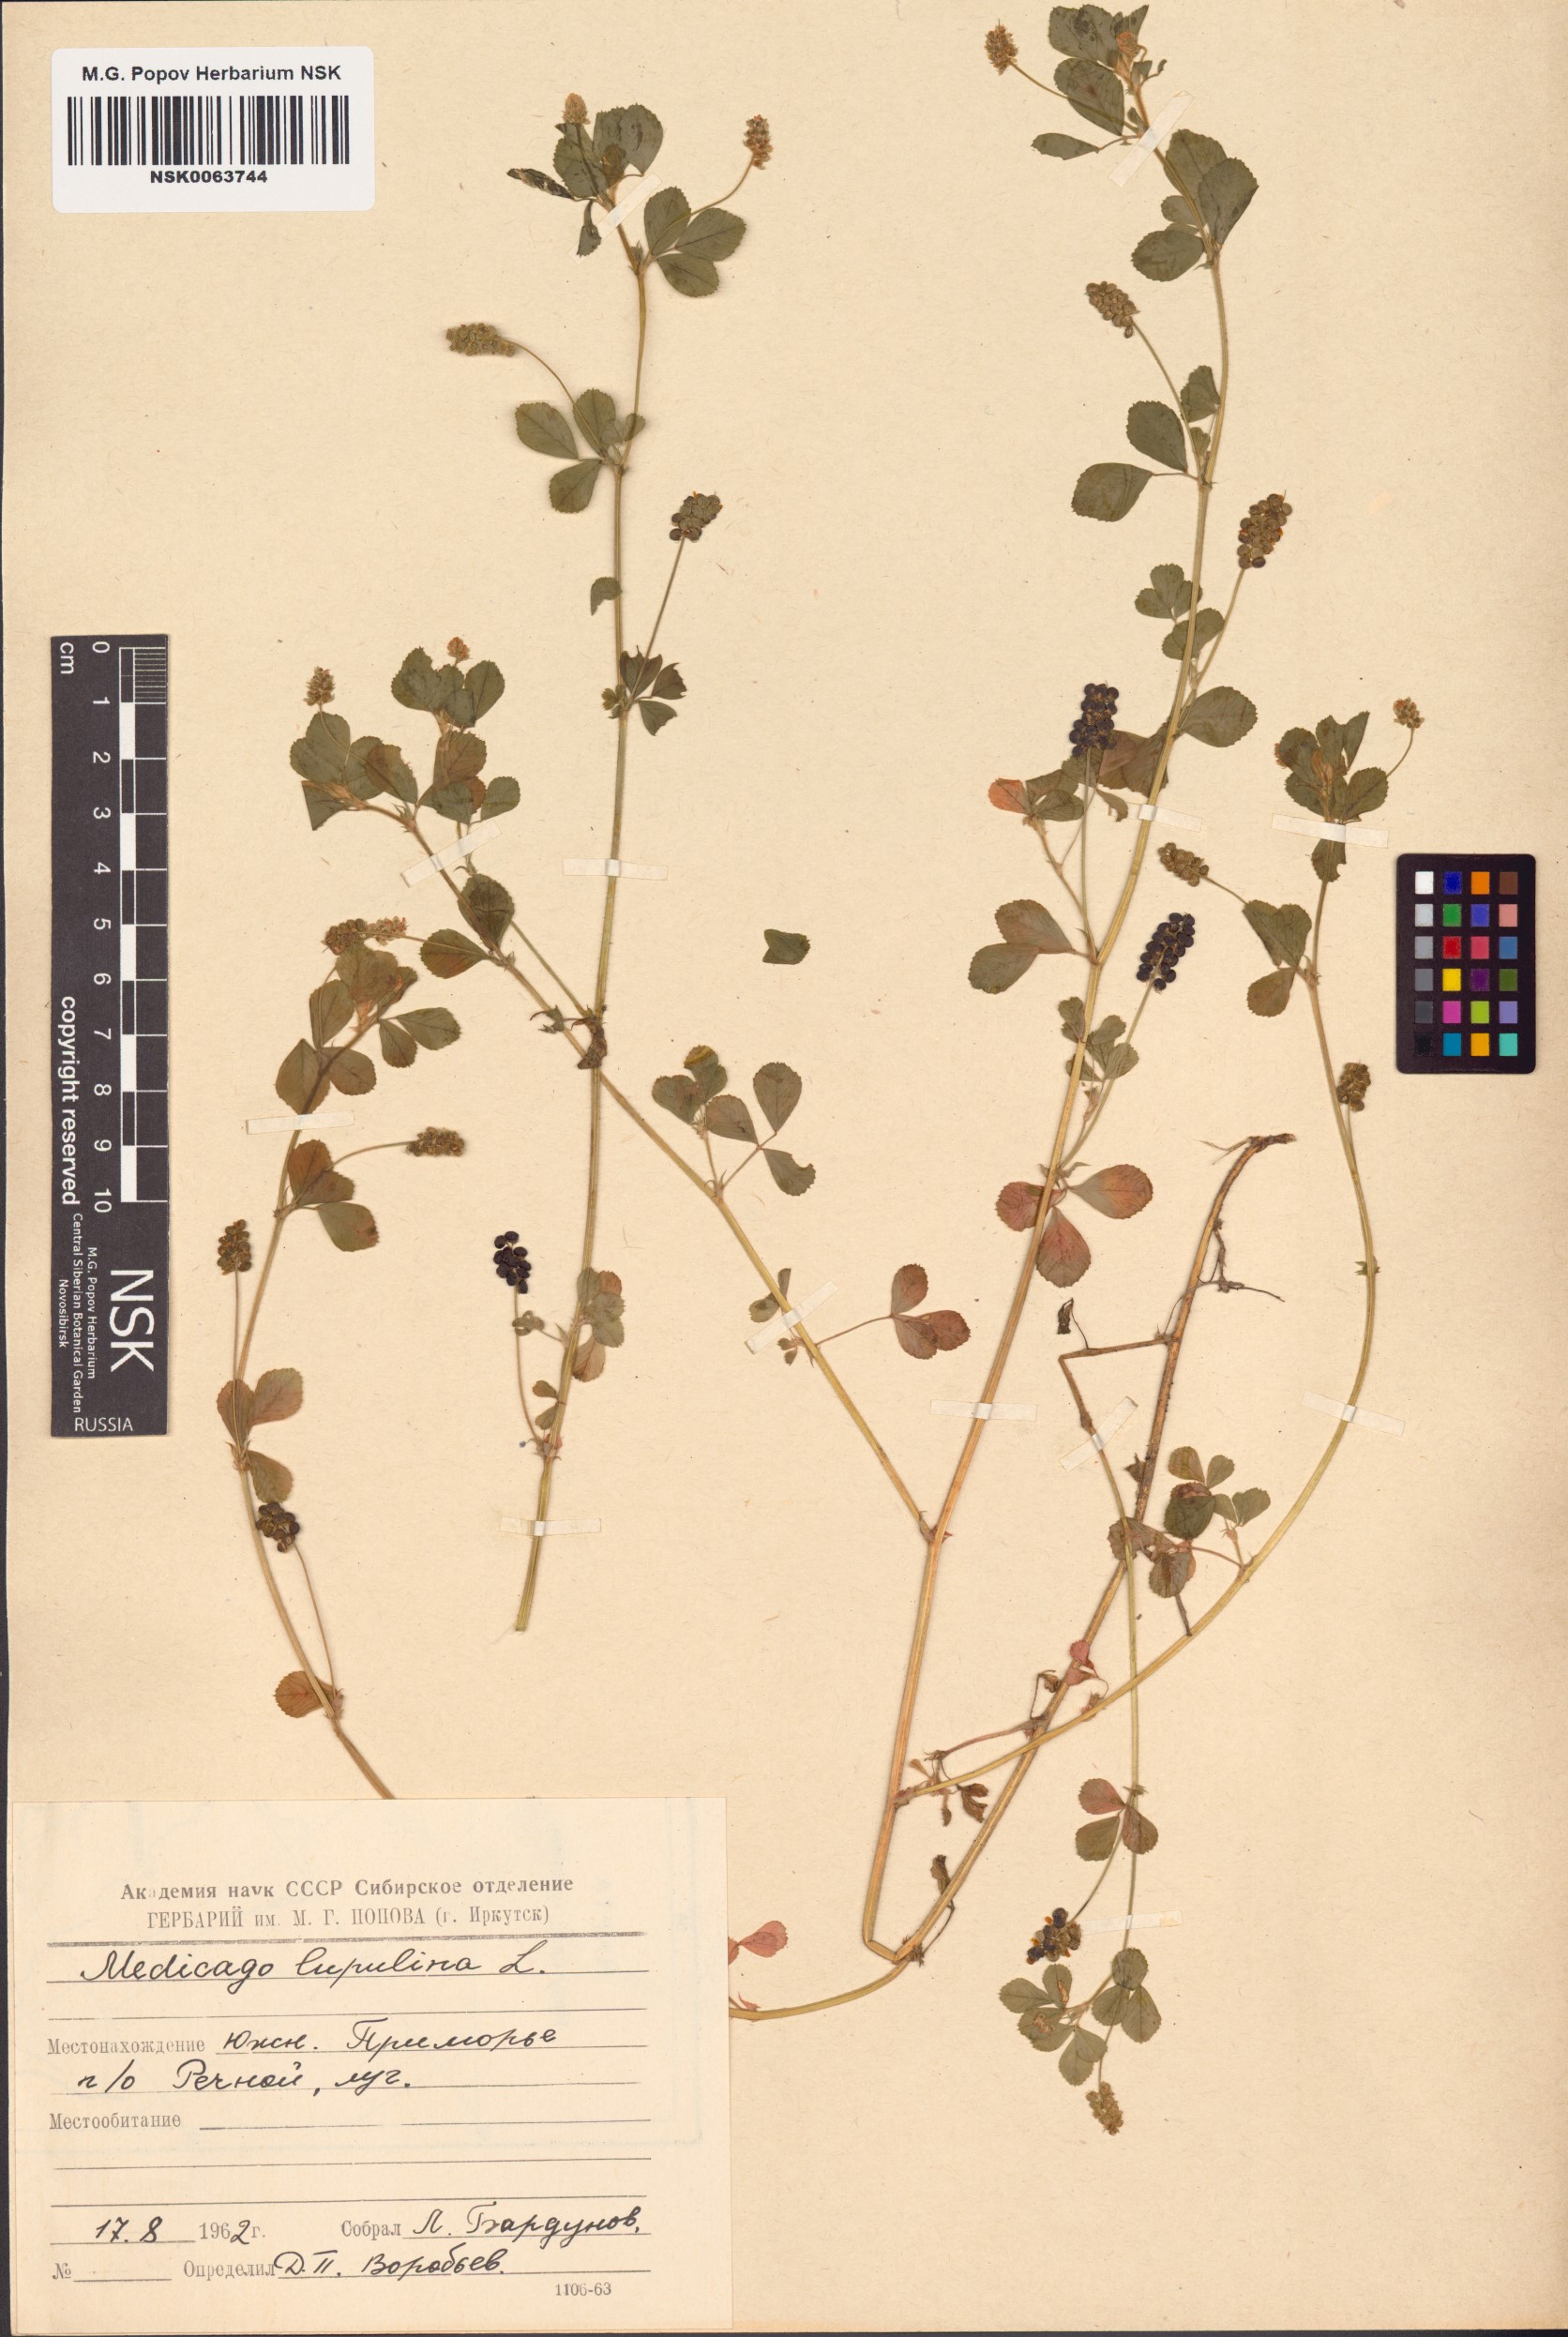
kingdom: Plantae
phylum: Tracheophyta
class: Magnoliopsida
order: Fabales
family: Fabaceae
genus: Medicago
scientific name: Medicago lupulina
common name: Black medick
